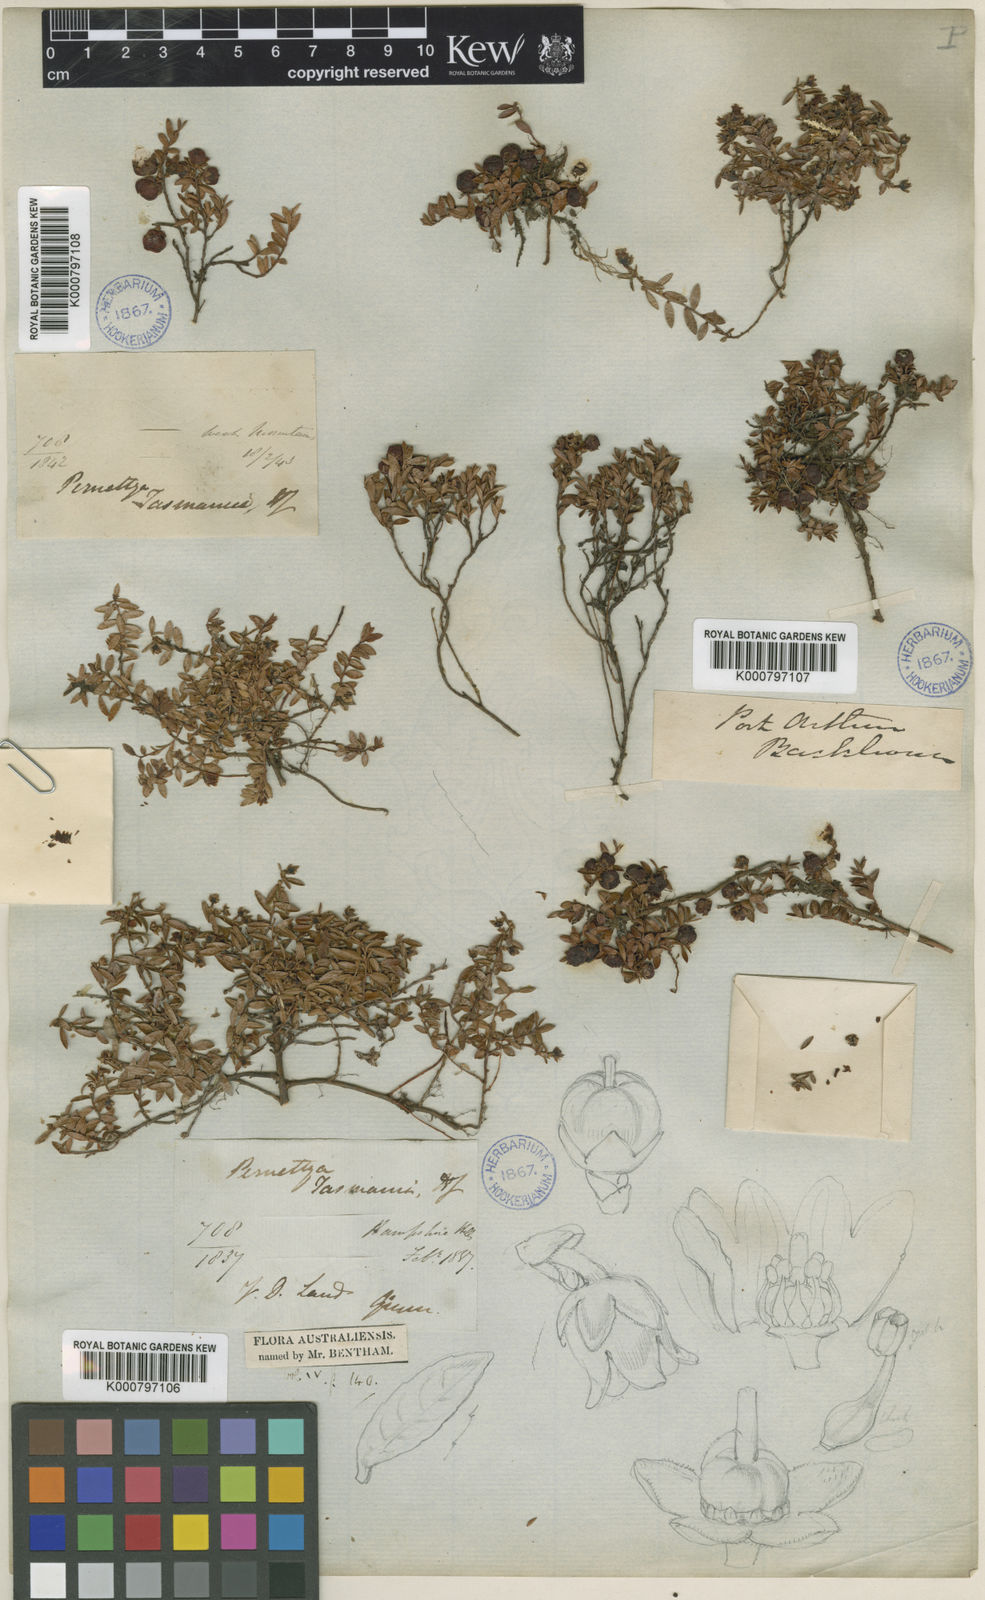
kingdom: Plantae
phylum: Tracheophyta
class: Magnoliopsida
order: Ericales
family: Ericaceae
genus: Gaultheria
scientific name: Gaultheria
